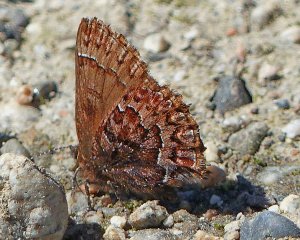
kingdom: Animalia
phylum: Arthropoda
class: Insecta
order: Lepidoptera
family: Lycaenidae
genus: Incisalia
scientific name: Incisalia eryphon
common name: Western Pine Elfin
